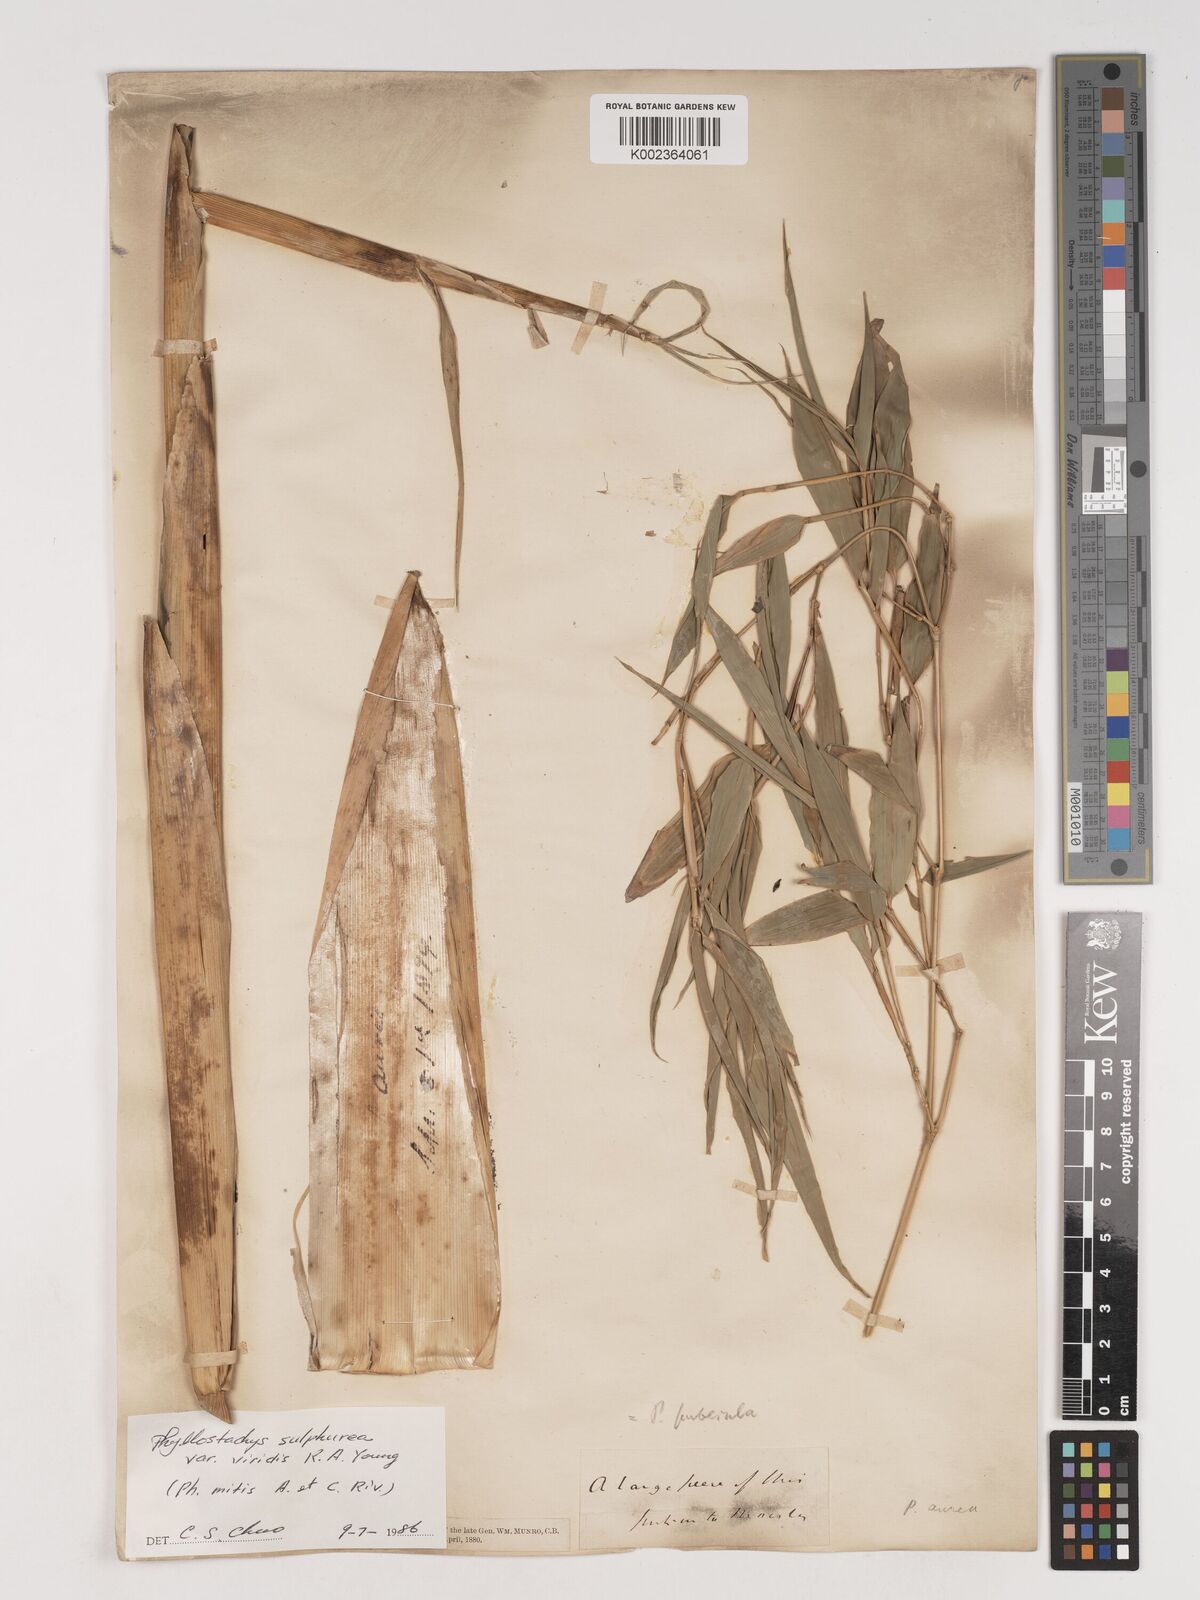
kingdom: Plantae
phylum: Tracheophyta
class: Liliopsida
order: Poales
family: Poaceae
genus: Phyllostachys
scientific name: Phyllostachys sulphurea
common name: Sulphur bamboo
